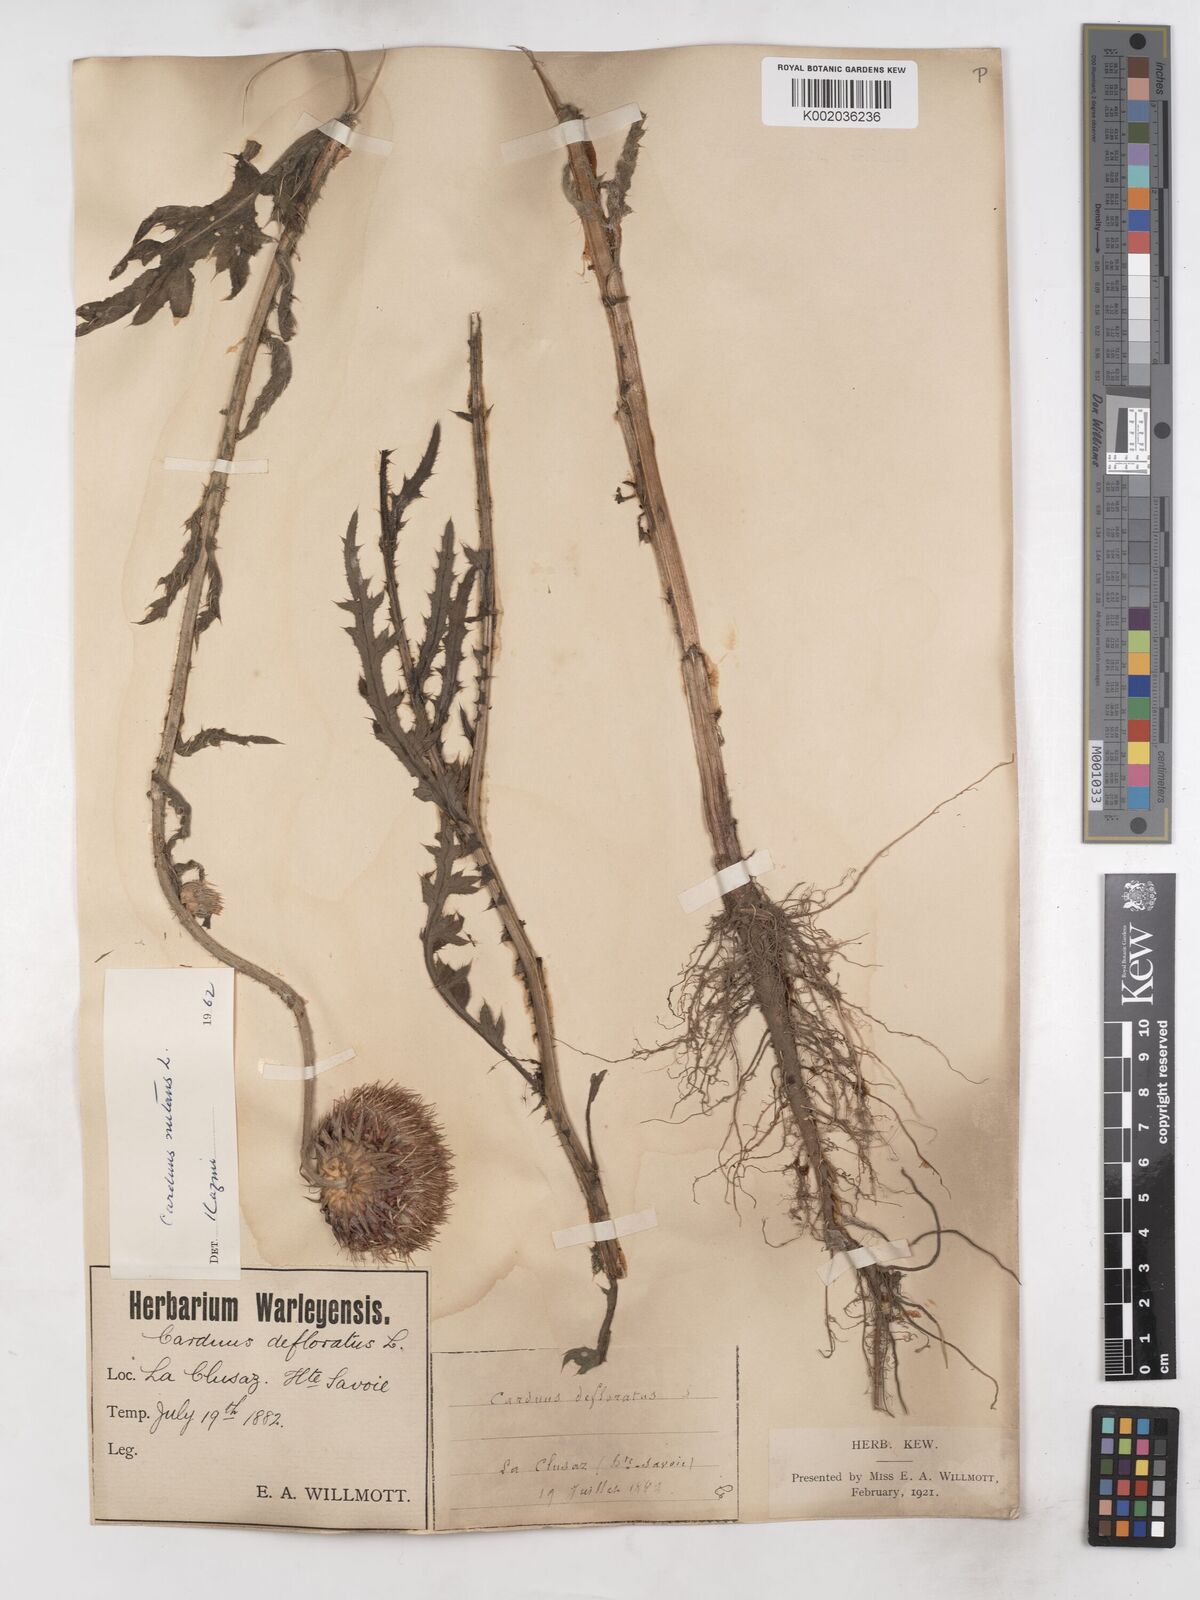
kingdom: Plantae
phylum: Tracheophyta
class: Magnoliopsida
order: Asterales
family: Asteraceae
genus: Carduus
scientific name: Carduus defloratus
